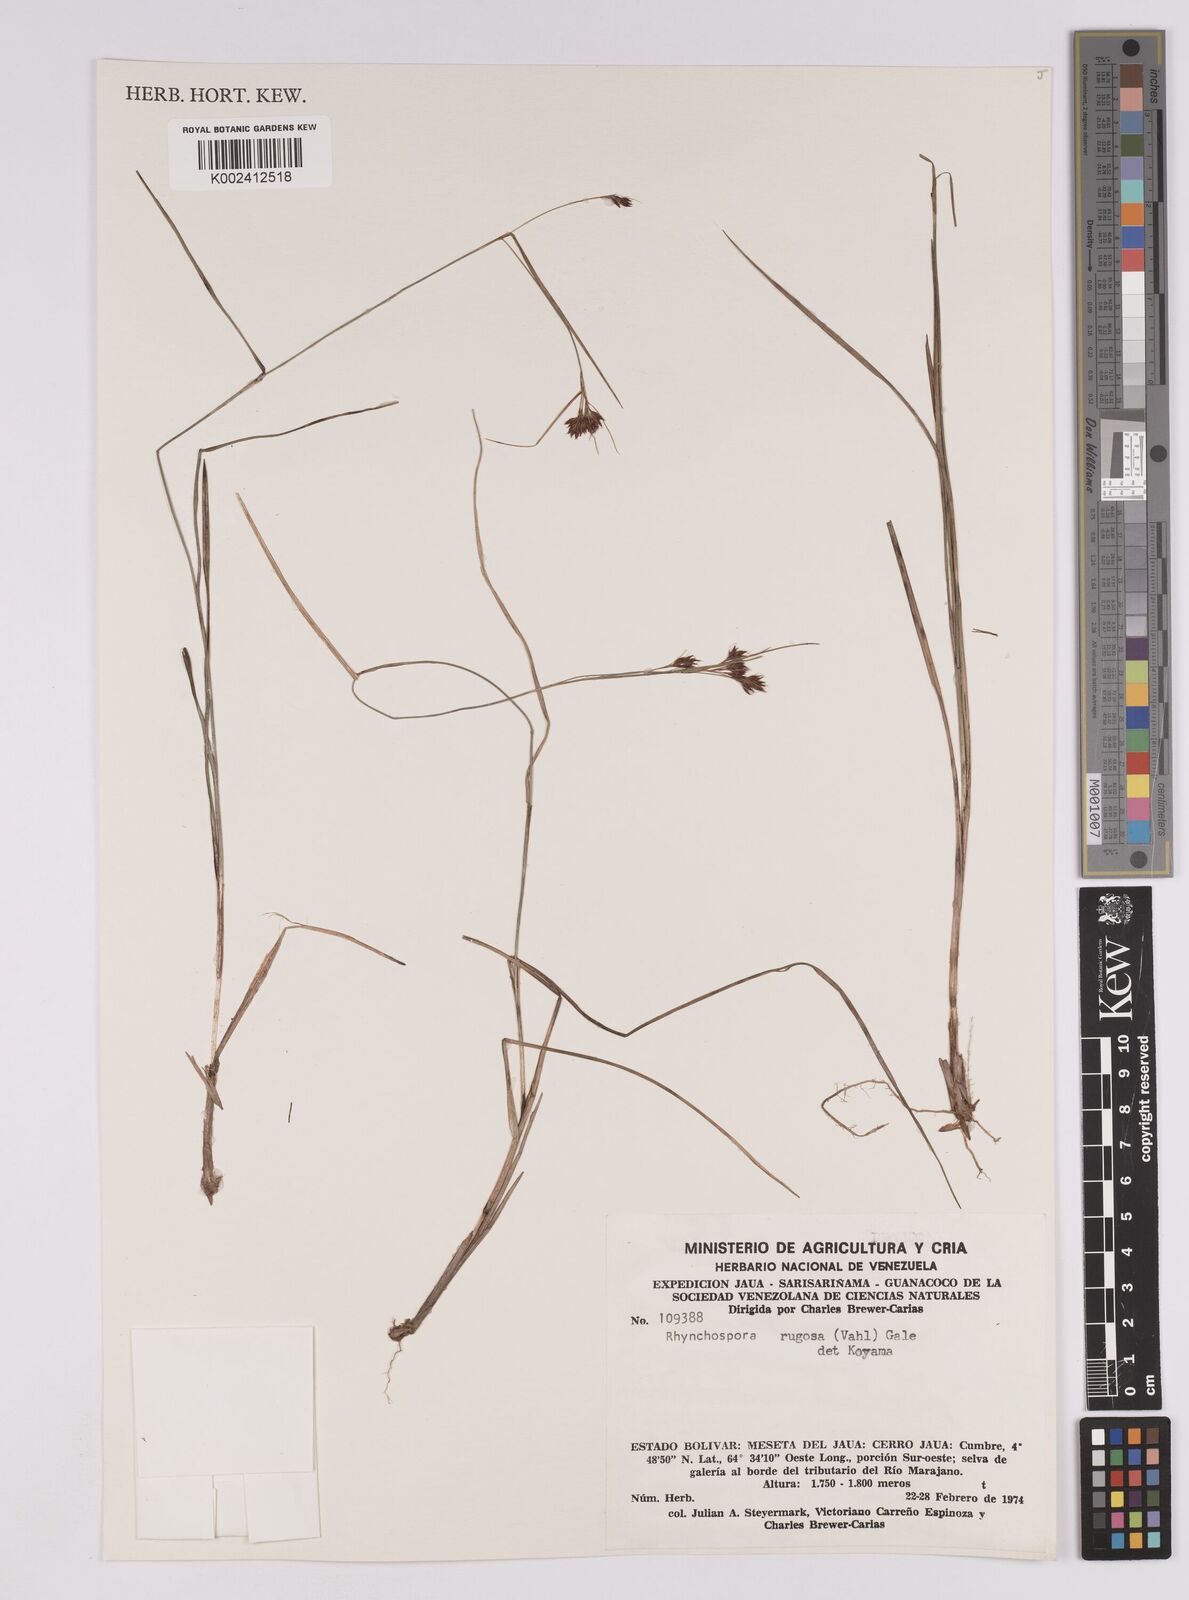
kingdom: Plantae
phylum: Tracheophyta
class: Liliopsida
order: Poales
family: Cyperaceae
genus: Rhynchospora
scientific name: Rhynchospora rugosa
